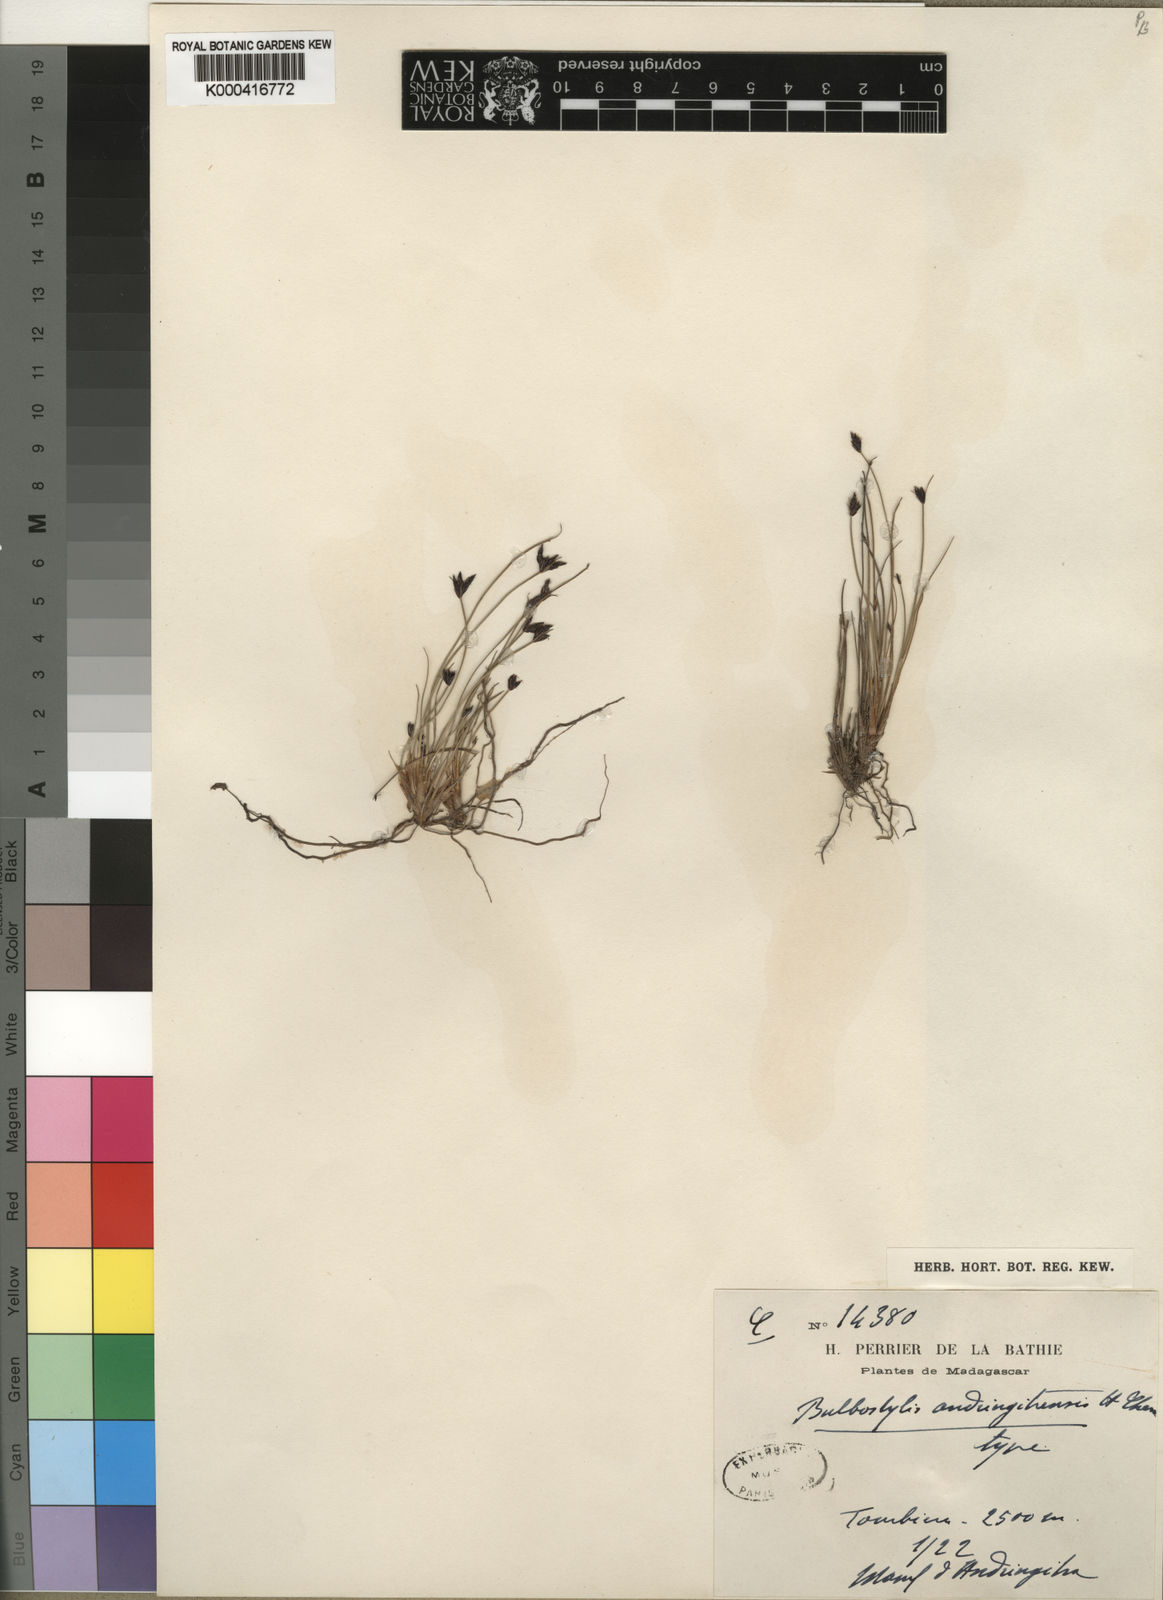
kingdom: Plantae
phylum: Tracheophyta
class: Liliopsida
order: Poales
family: Cyperaceae
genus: Bulbostylis
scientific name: Bulbostylis andringitrensis
